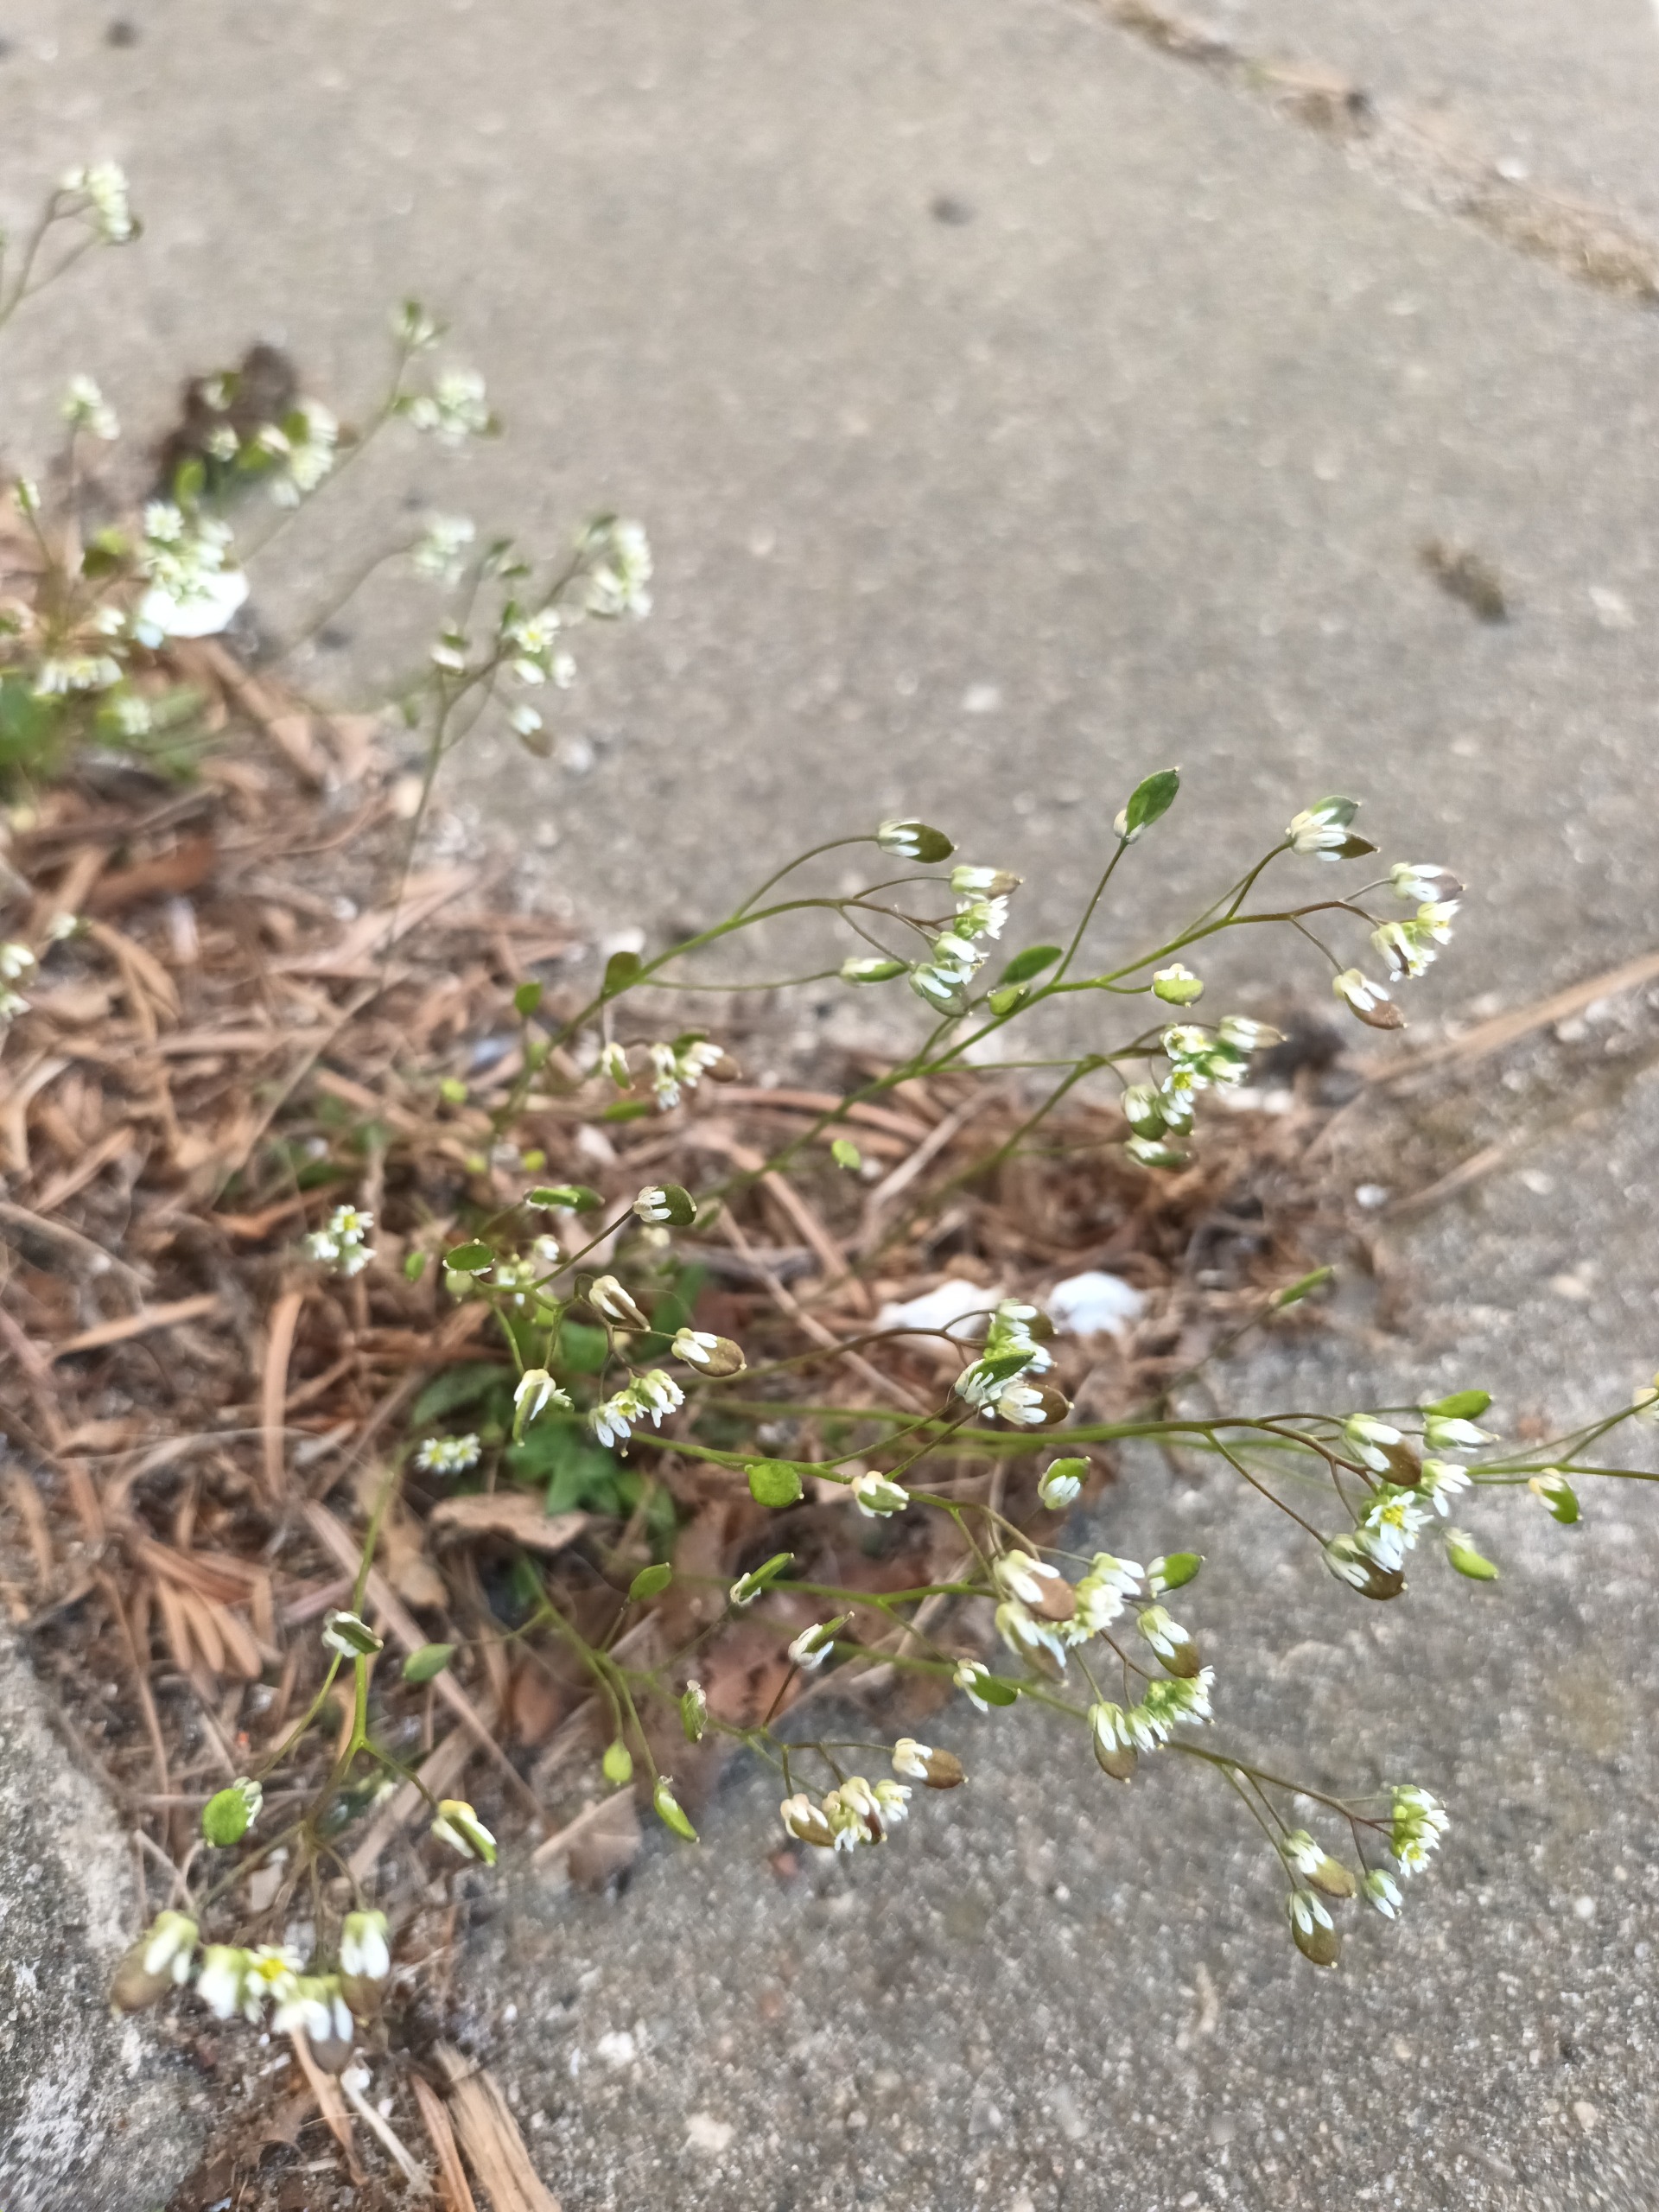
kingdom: Plantae
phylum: Tracheophyta
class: Magnoliopsida
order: Brassicales
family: Brassicaceae
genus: Draba
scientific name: Draba verna
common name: Vår-gæslingeblomst
